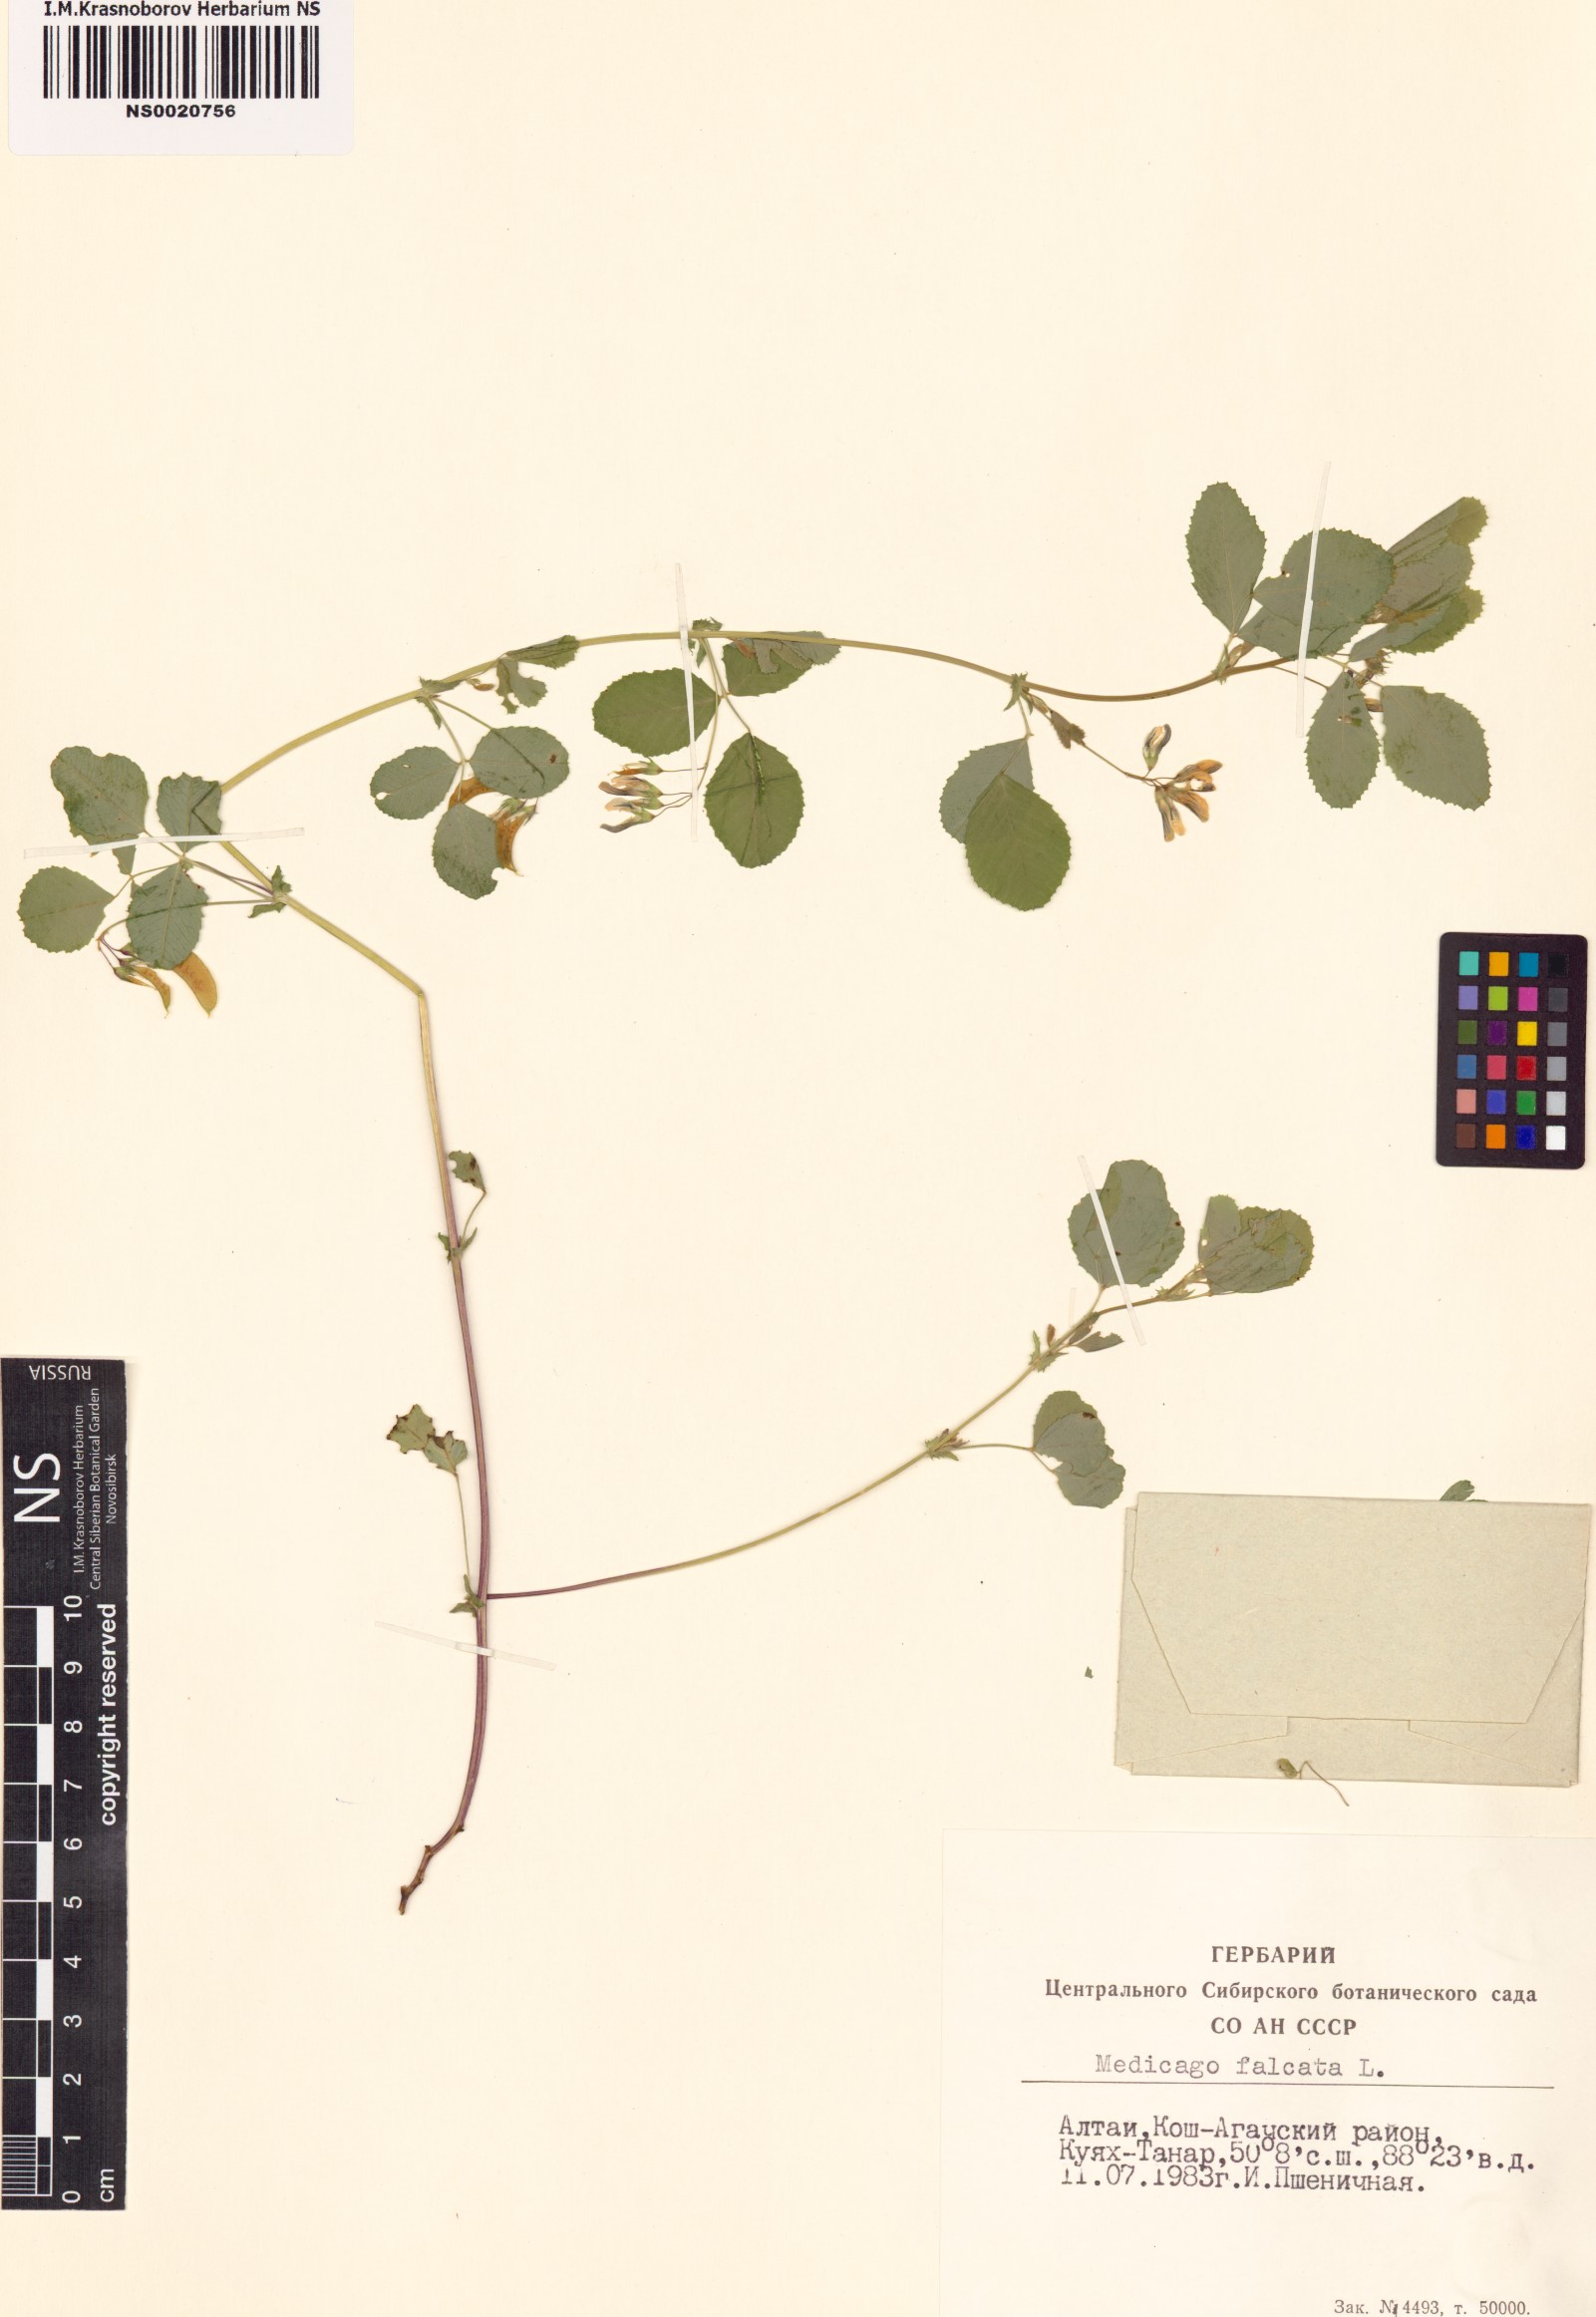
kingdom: Plantae
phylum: Tracheophyta
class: Magnoliopsida
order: Fabales
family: Fabaceae
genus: Medicago
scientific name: Medicago falcata
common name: Sickle medick
